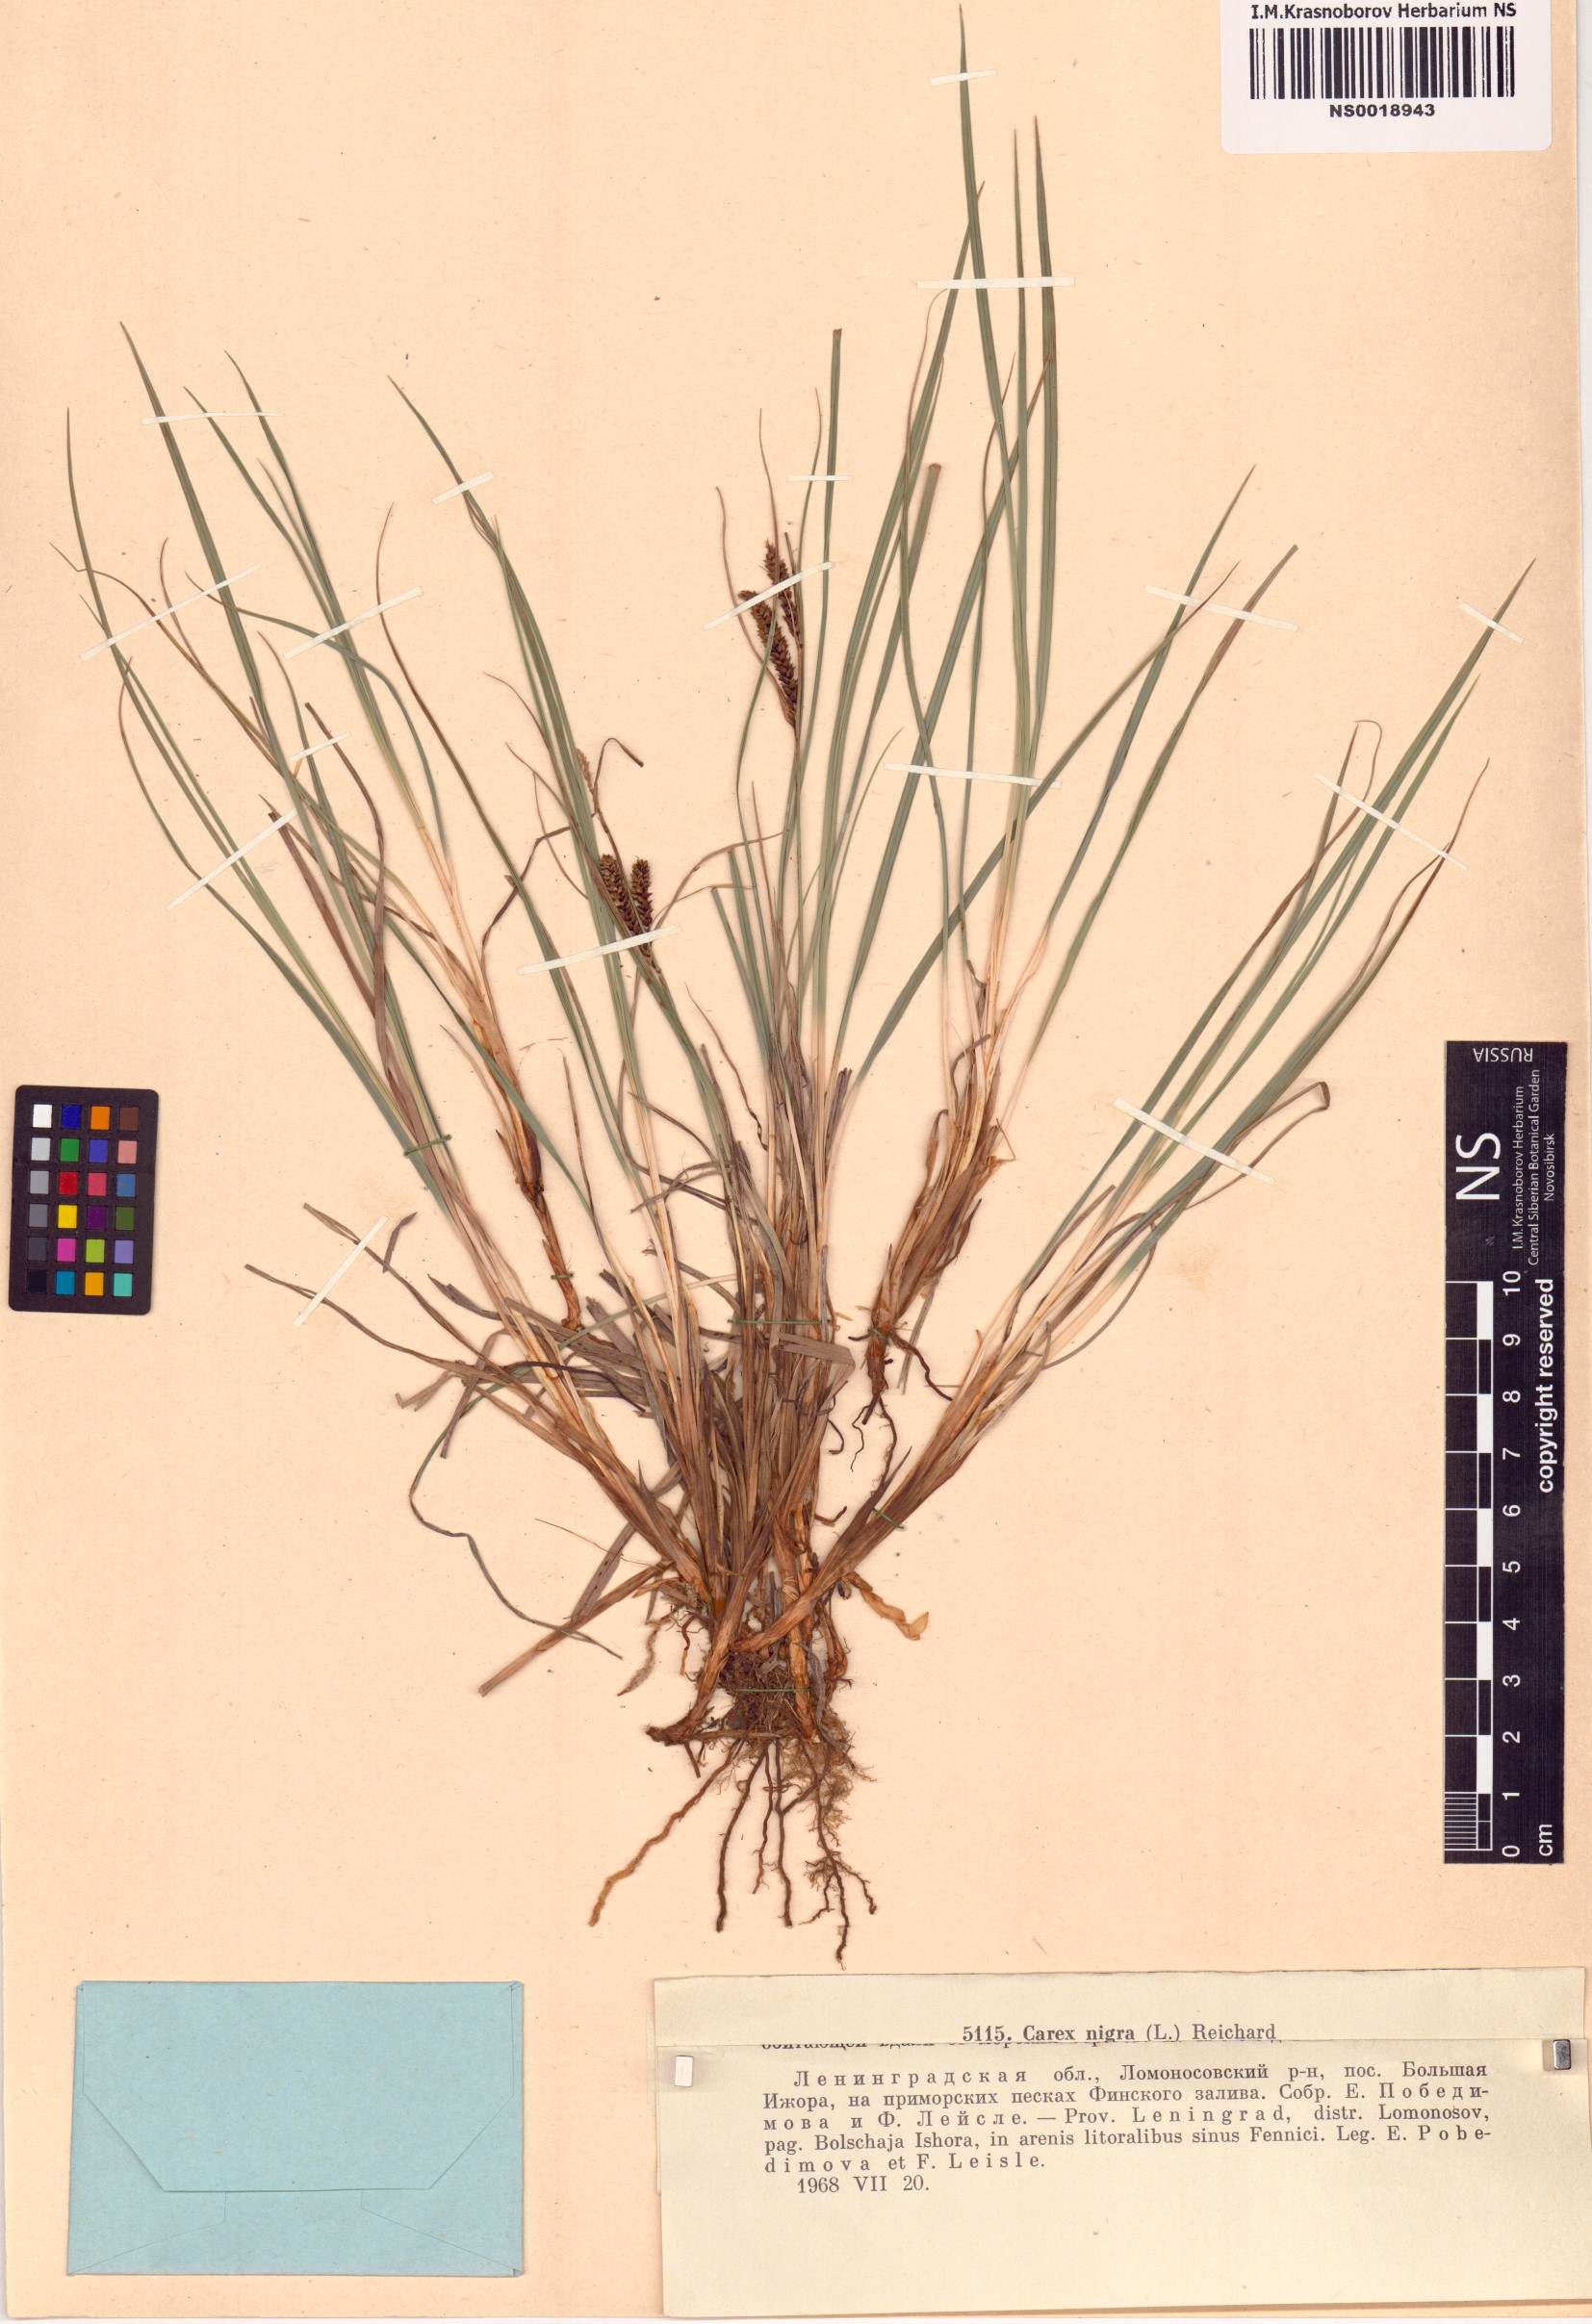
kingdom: Plantae
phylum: Tracheophyta
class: Liliopsida
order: Poales
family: Cyperaceae
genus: Carex
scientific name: Carex nigra
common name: Common sedge
